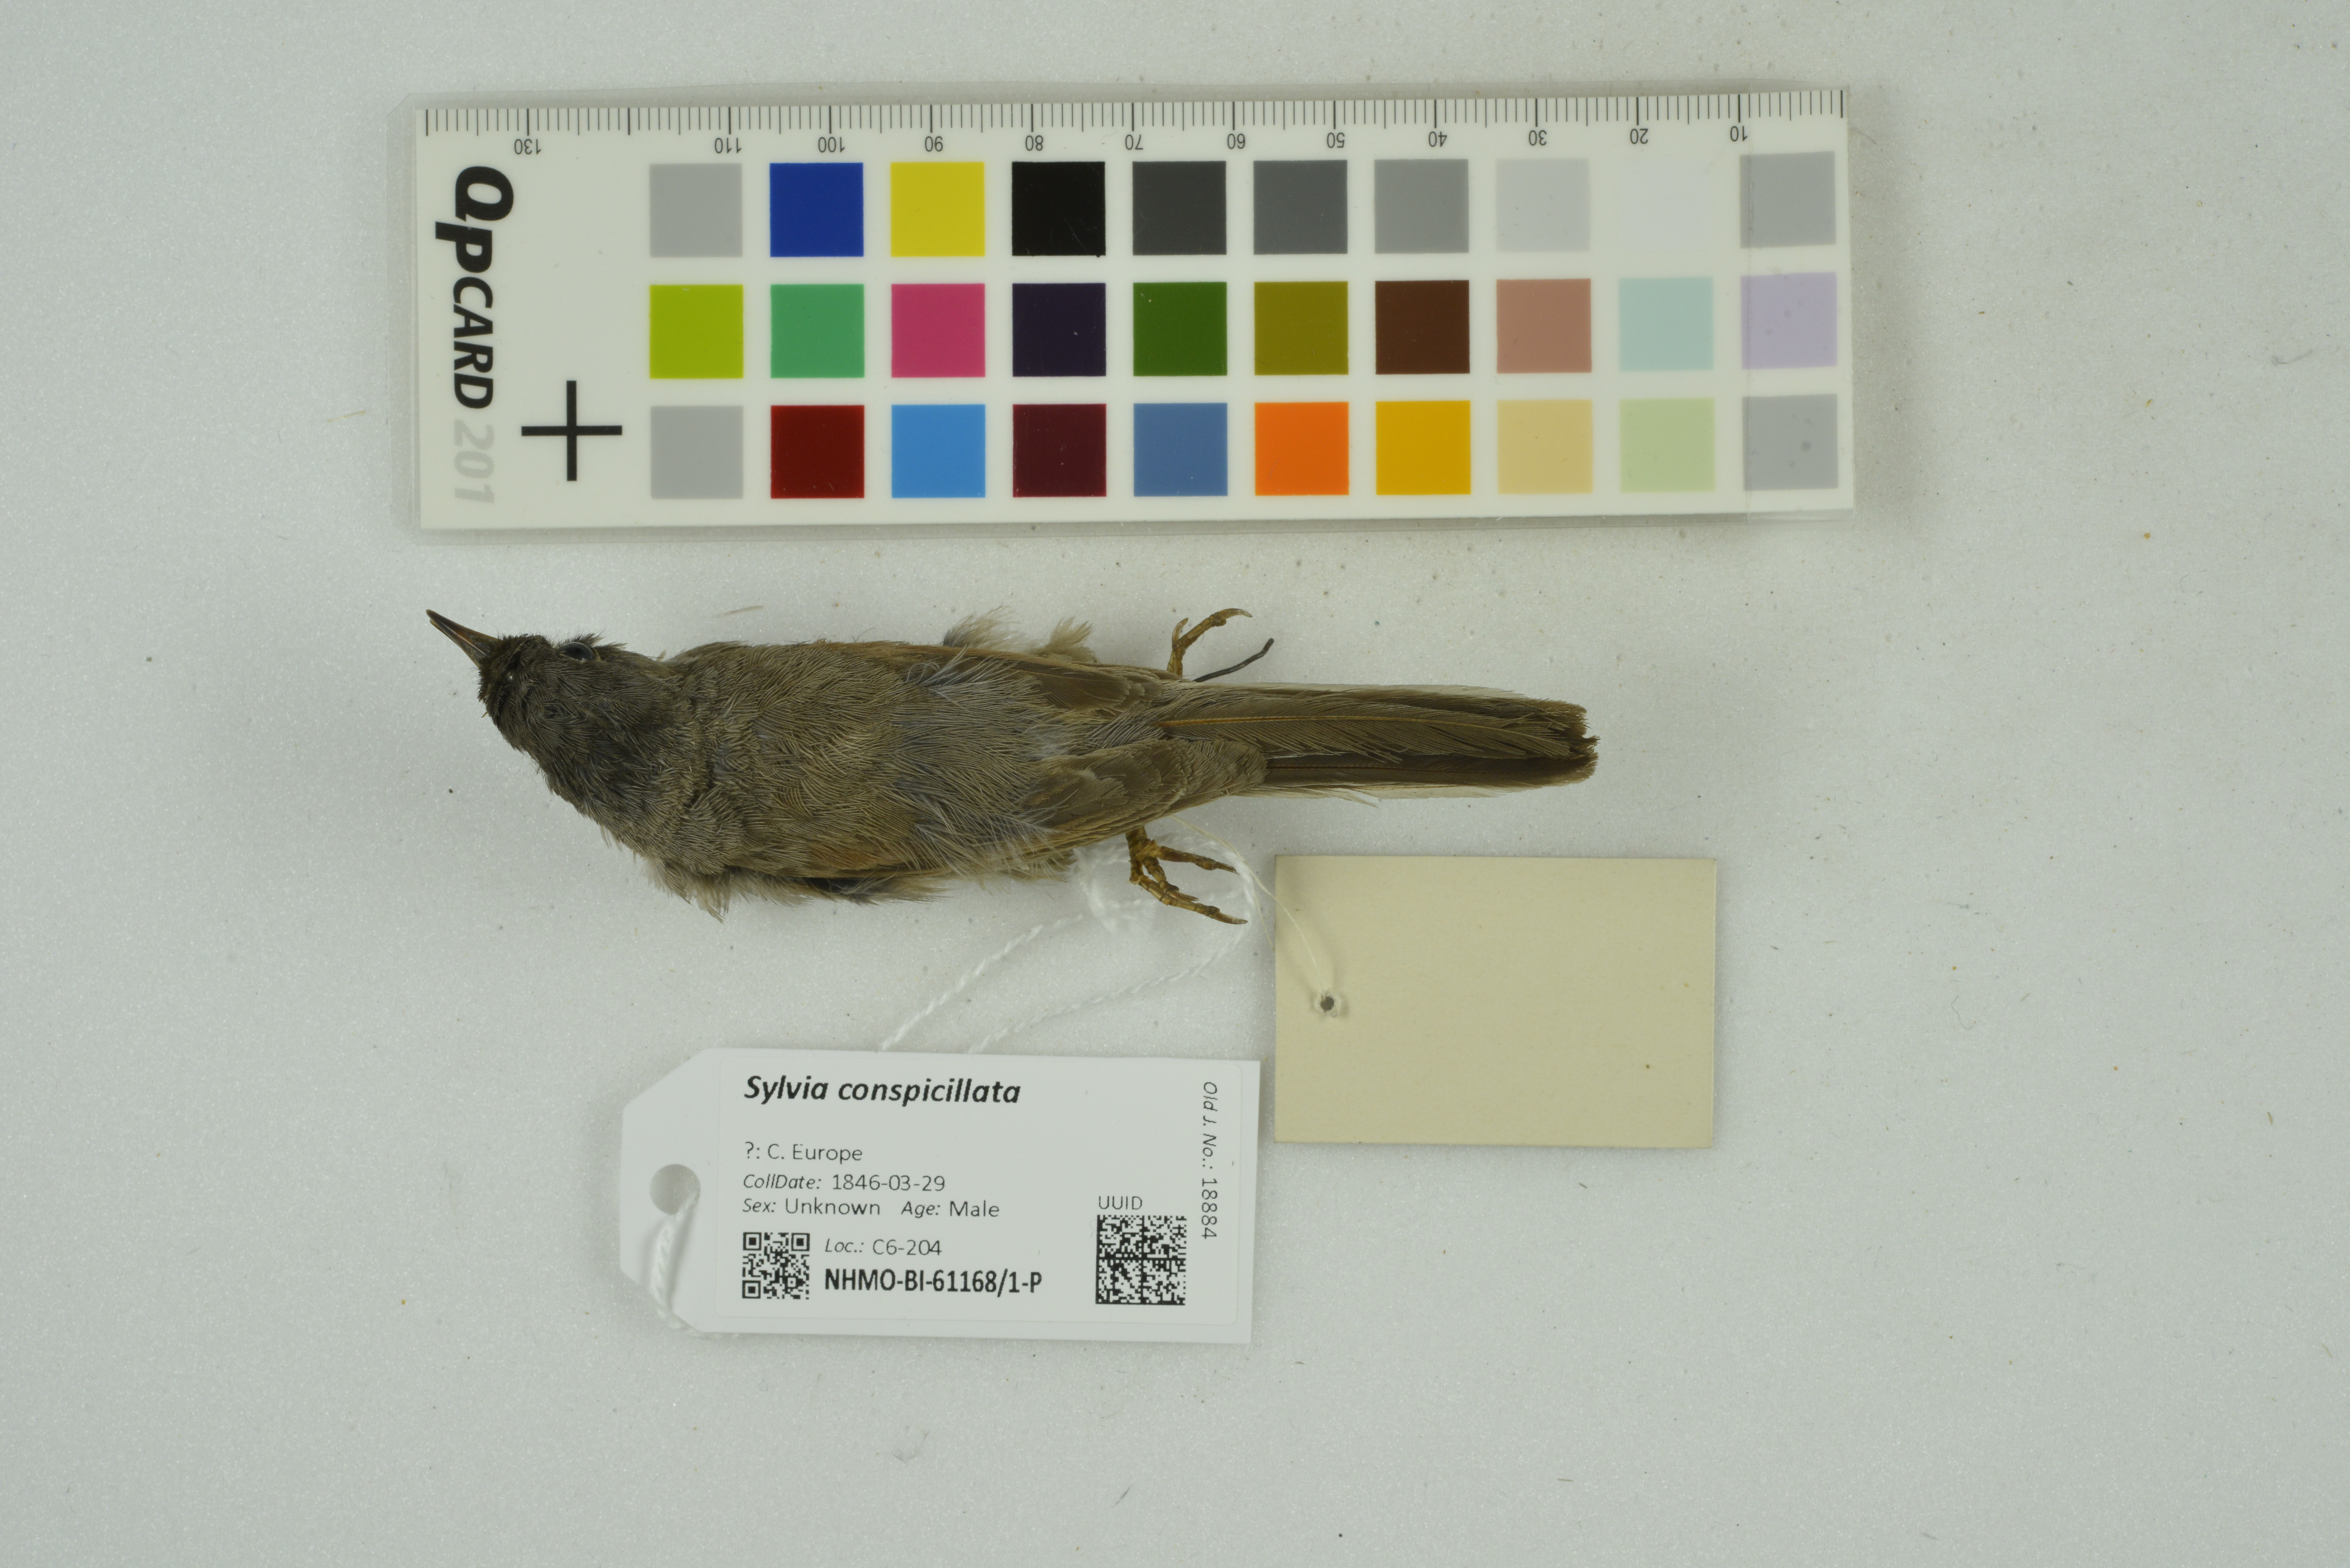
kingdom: Animalia
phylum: Chordata
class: Aves
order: Passeriformes
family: Sylviidae
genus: Sylvia
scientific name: Sylvia conspicillata
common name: Spectacled warbler
